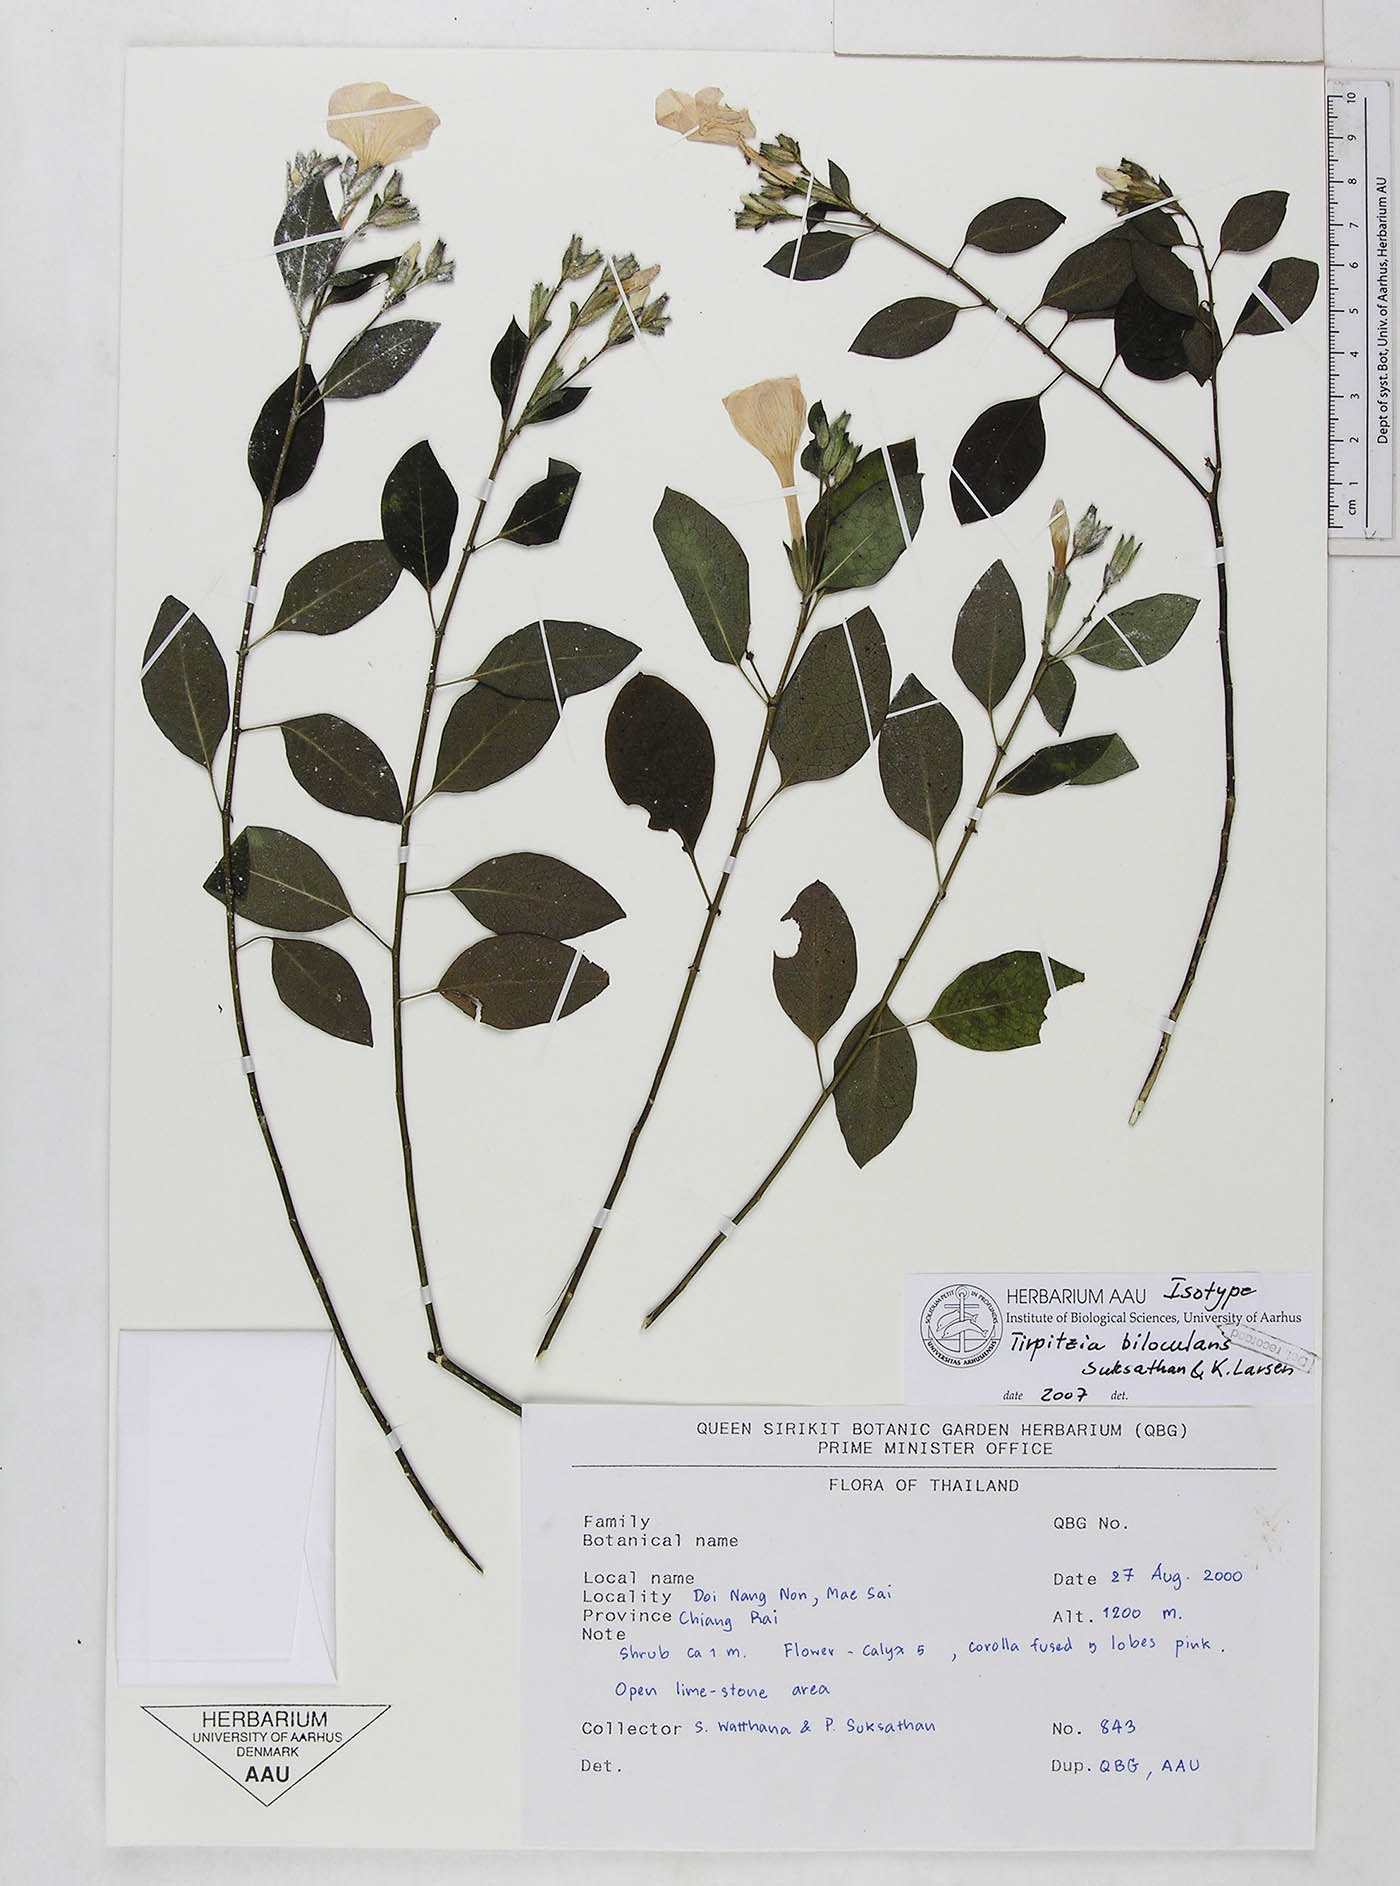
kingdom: Plantae
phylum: Tracheophyta
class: Magnoliopsida
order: Malpighiales
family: Linaceae
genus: Tirpitzia
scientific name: Tirpitzia bilocularis
